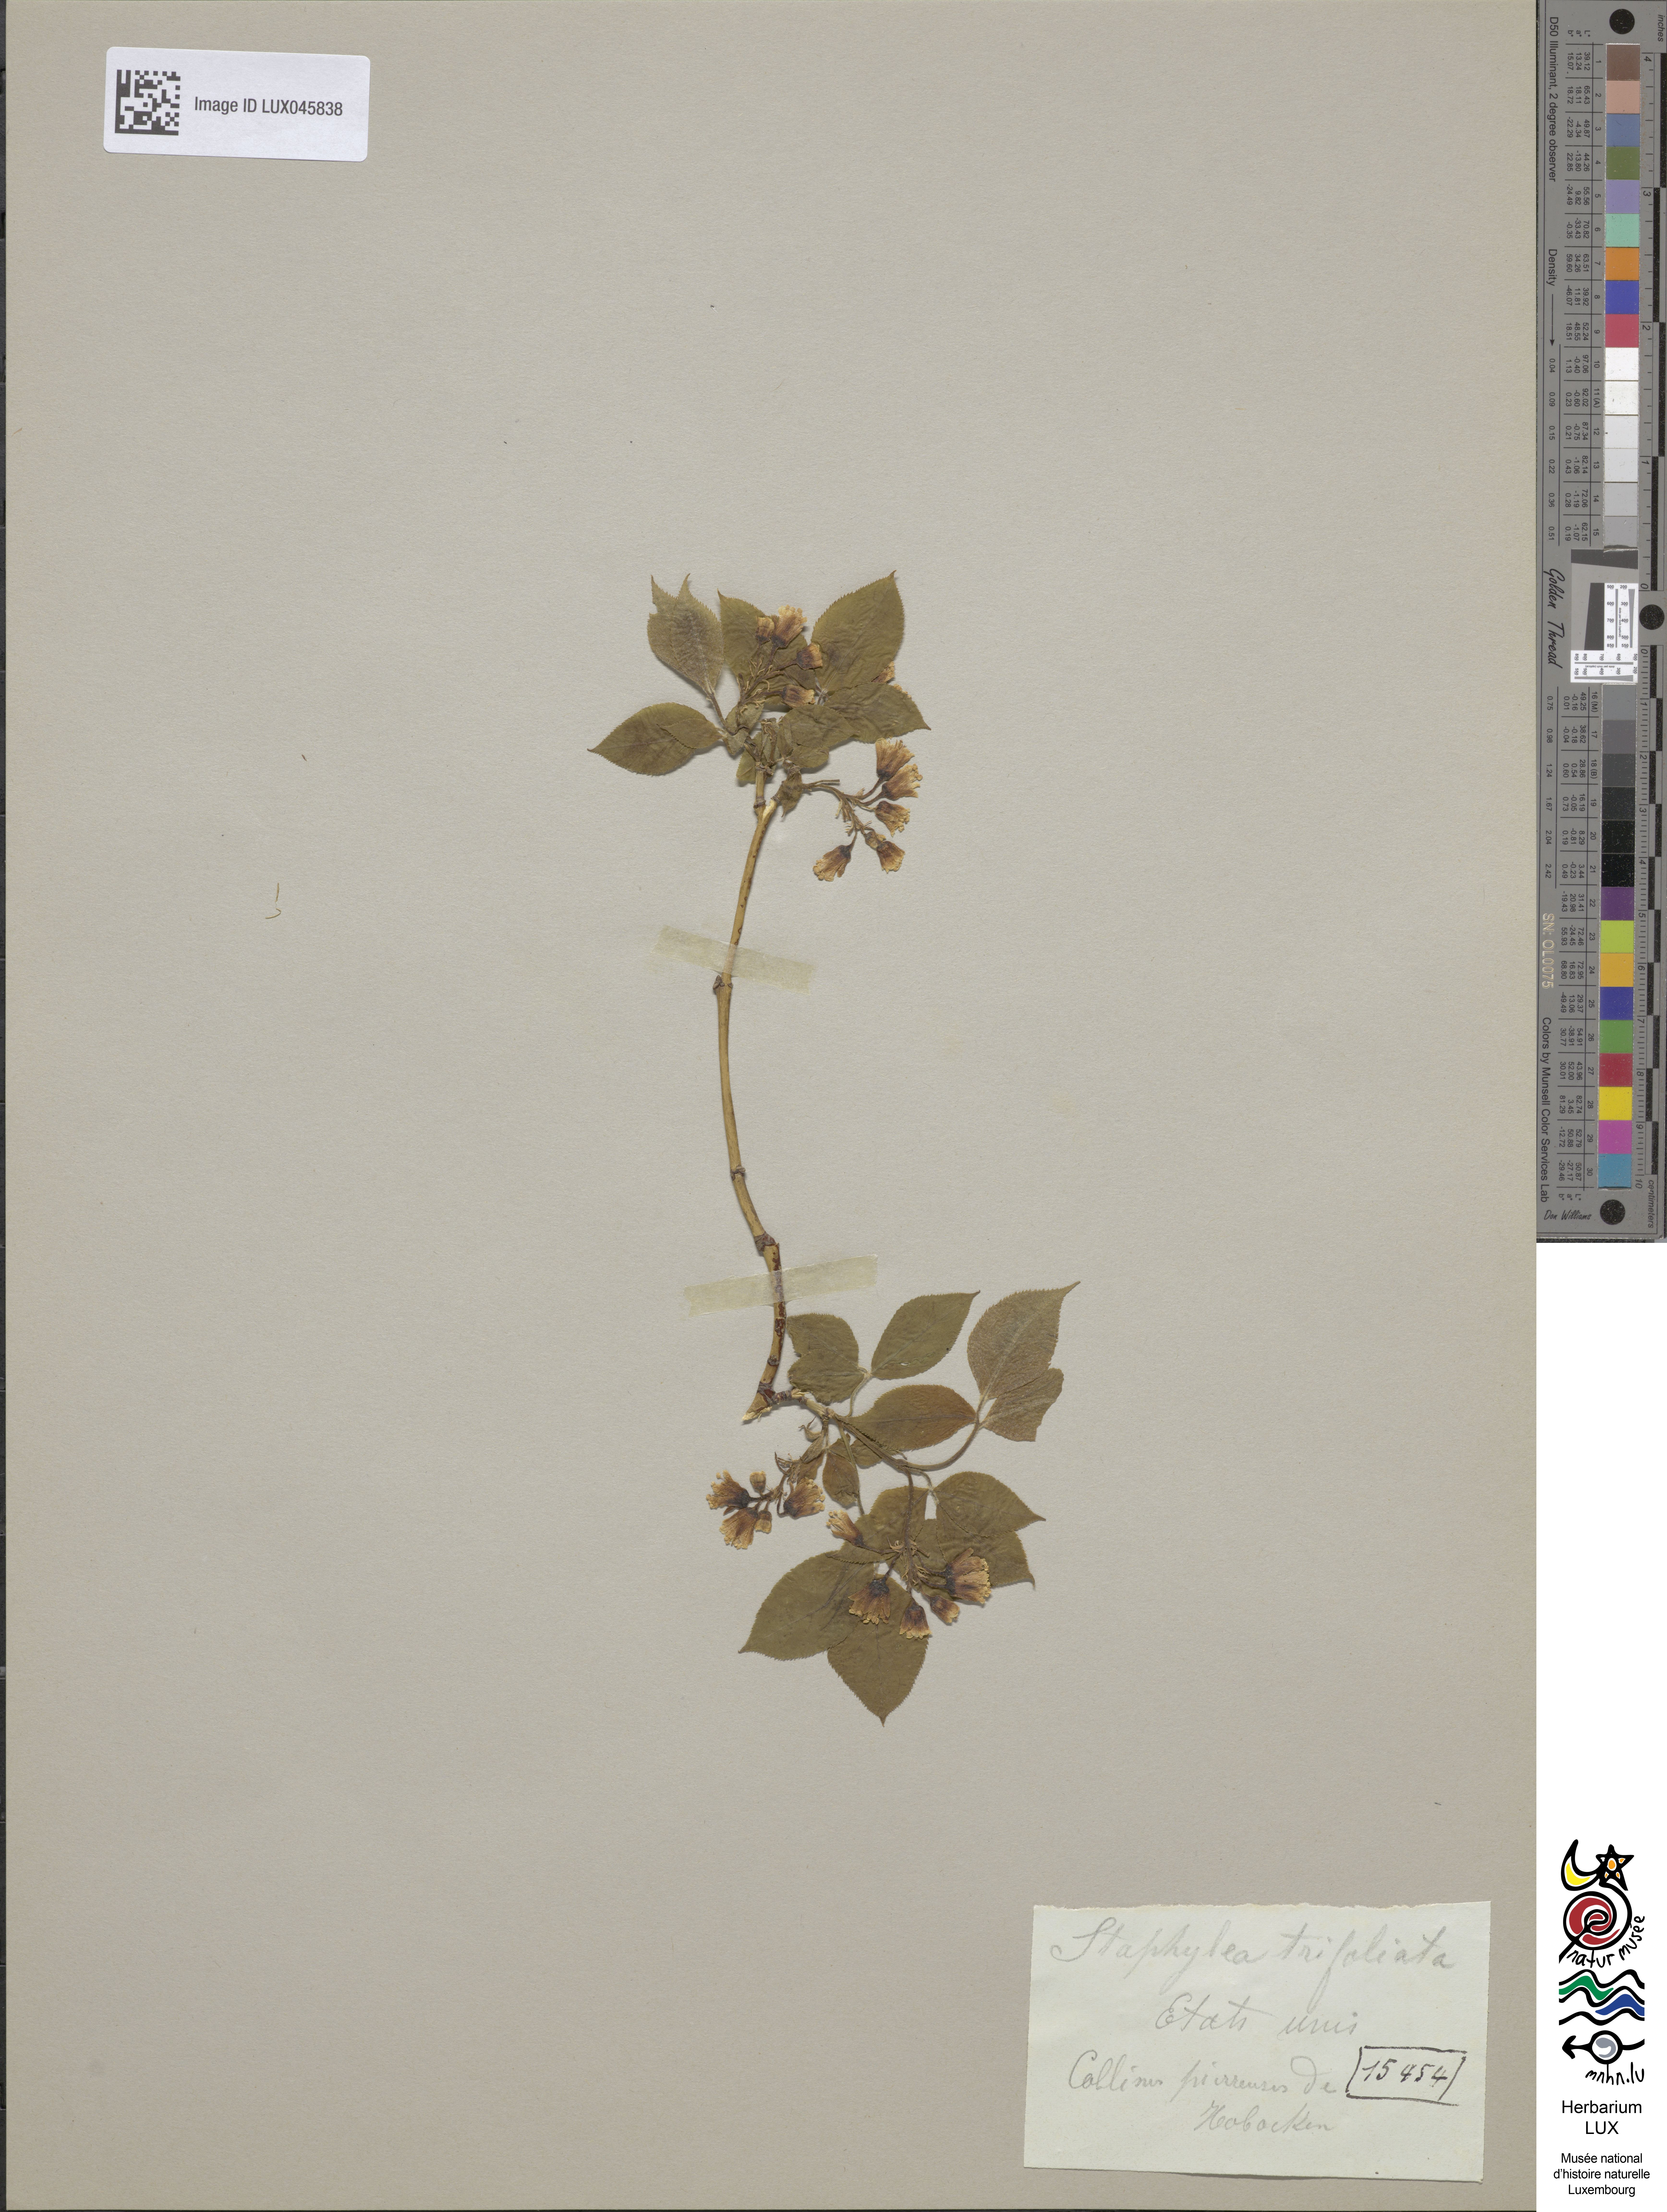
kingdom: Plantae
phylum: Tracheophyta
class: Magnoliopsida
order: Crossosomatales
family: Staphyleaceae
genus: Staphylea
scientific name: Staphylea trifolia
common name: American bladdernut
